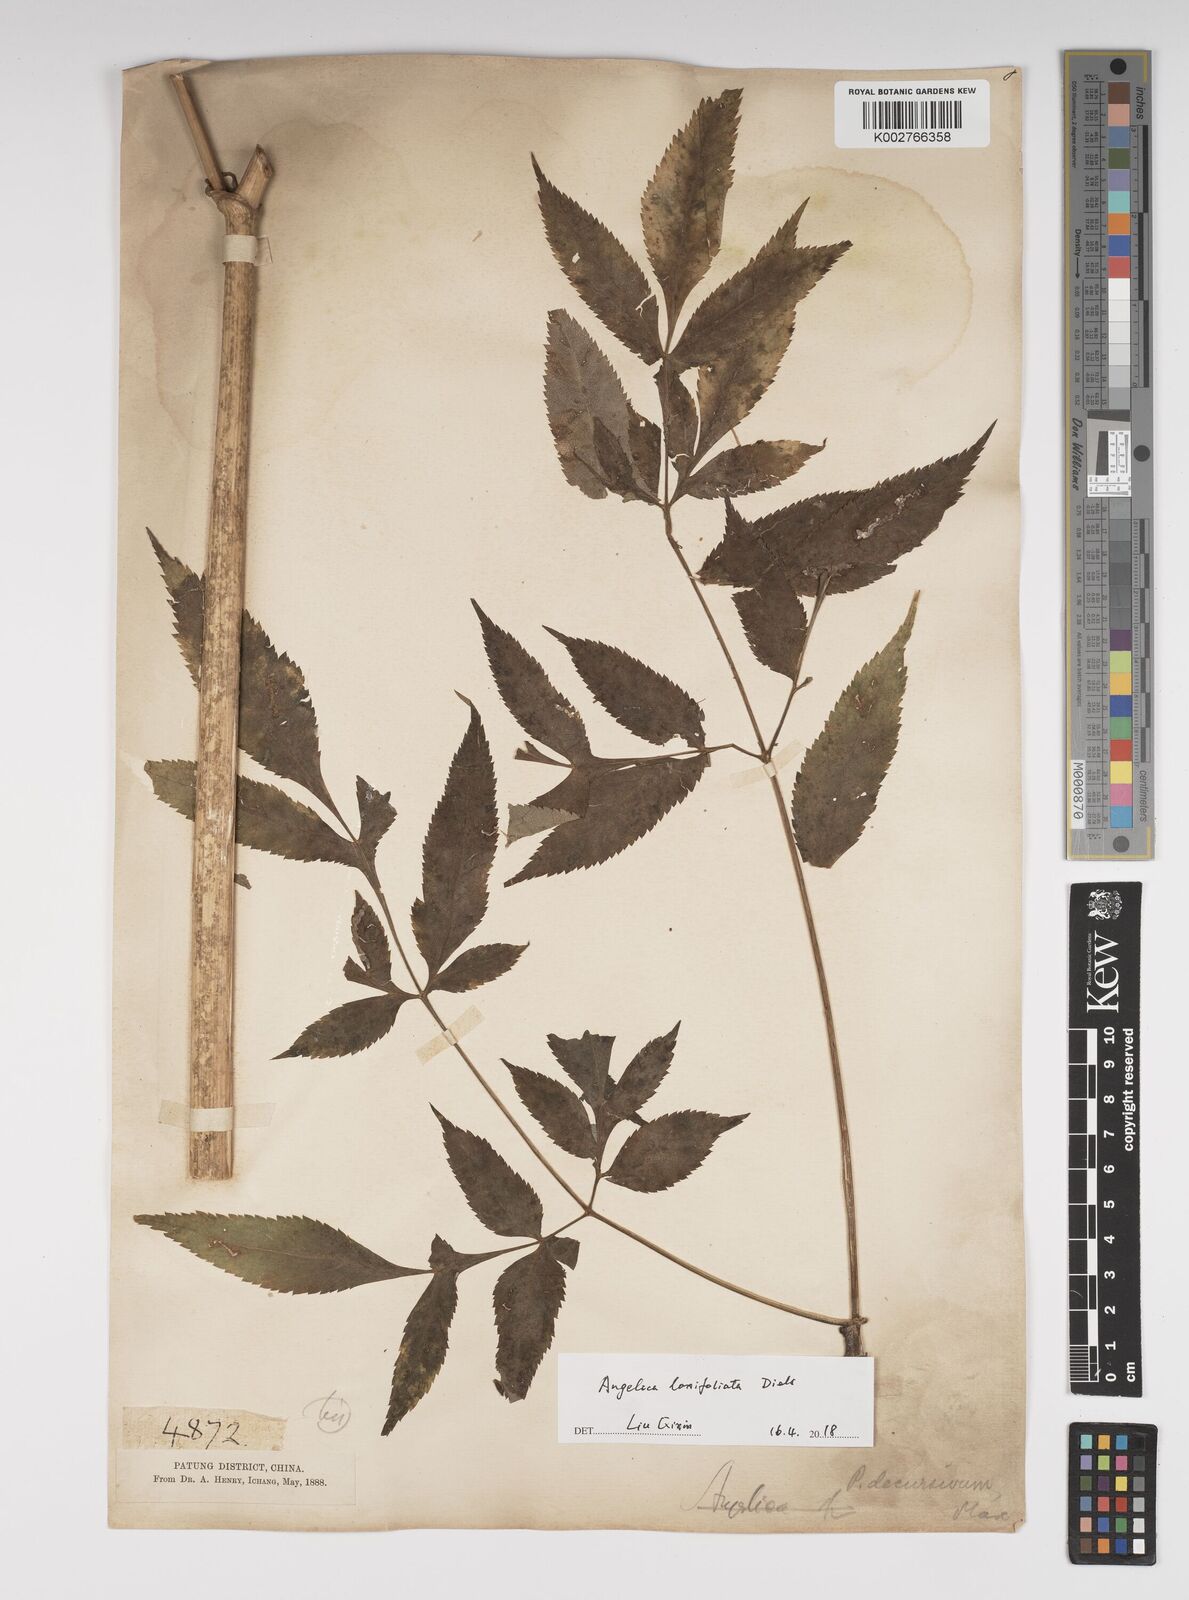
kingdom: Plantae
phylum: Tracheophyta
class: Magnoliopsida
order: Apiales
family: Apiaceae
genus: Angelica
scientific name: Angelica laxifoliata
